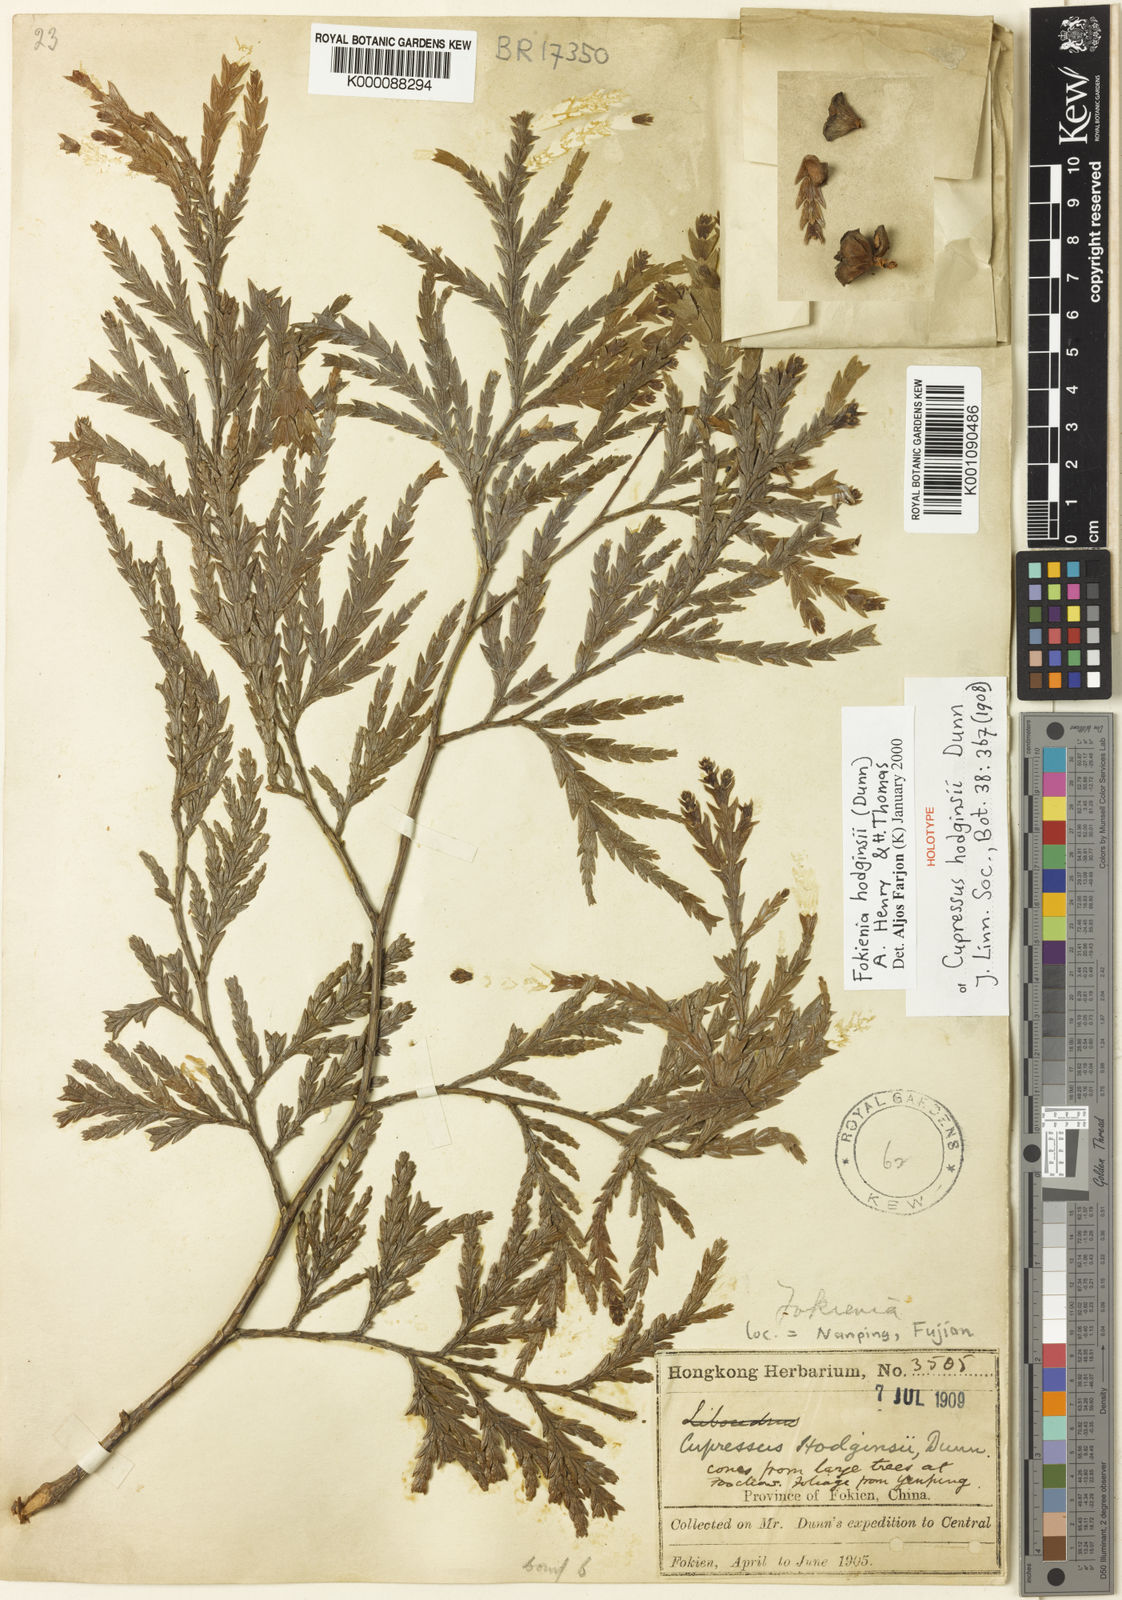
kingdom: Plantae
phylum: Tracheophyta
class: Pinopsida
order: Pinales
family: Cupressaceae
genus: Fokienia
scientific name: Fokienia hodginsii
